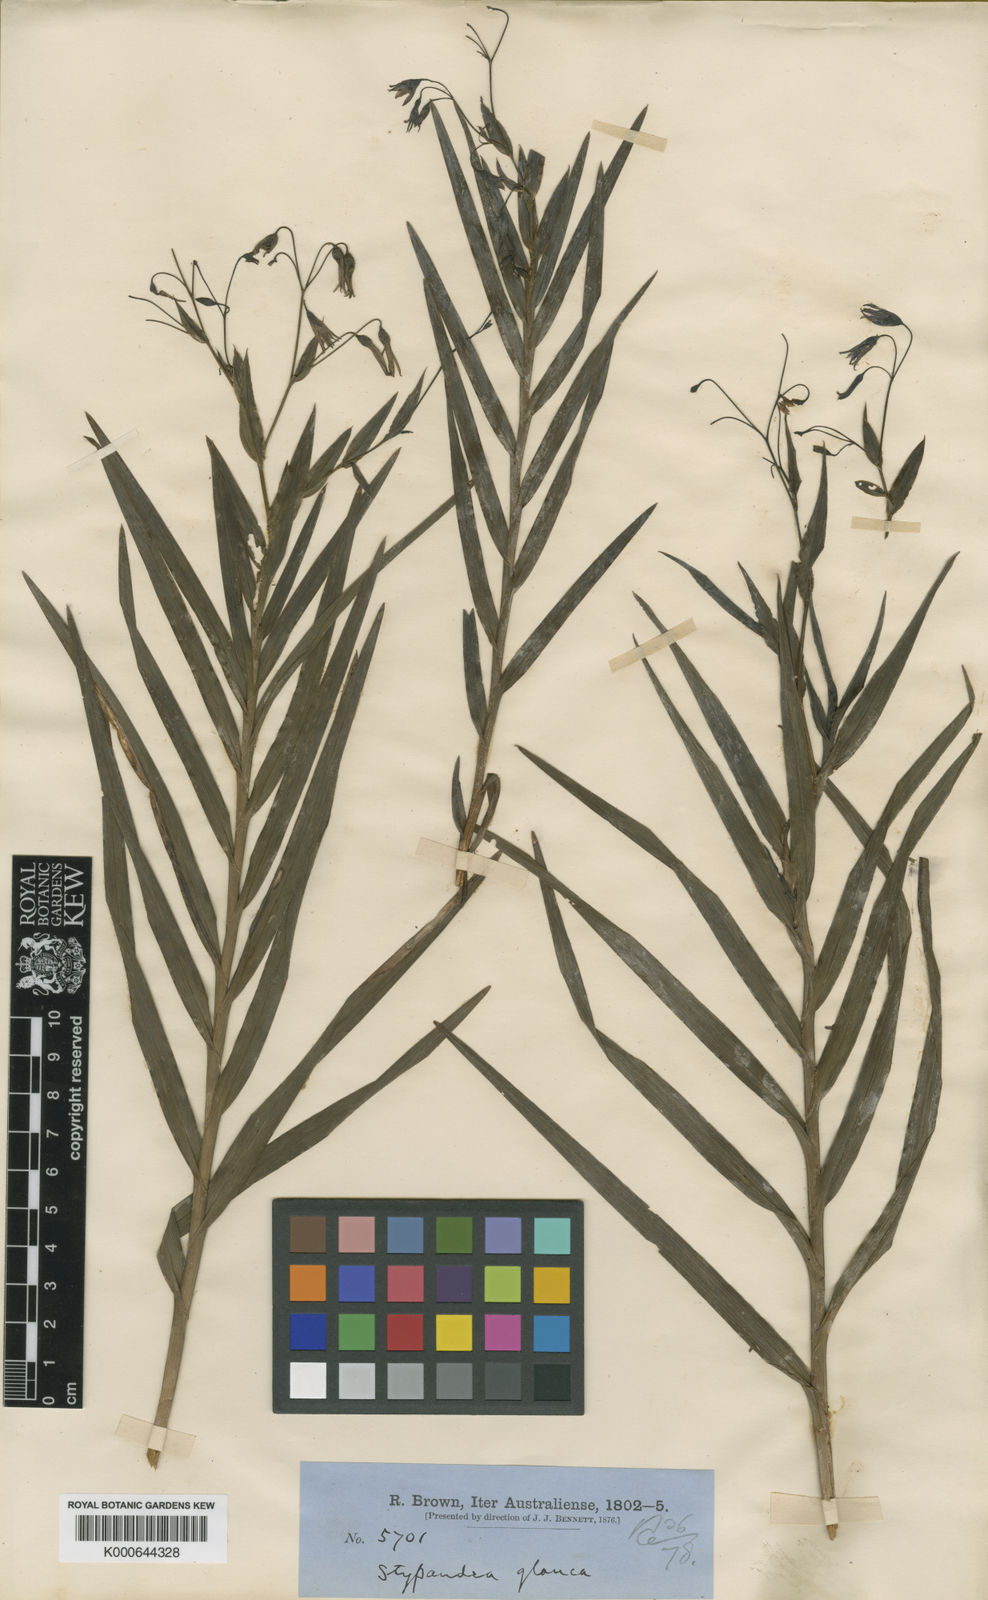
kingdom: Plantae
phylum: Tracheophyta
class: Liliopsida
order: Asparagales
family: Asphodelaceae
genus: Stypandra
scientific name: Stypandra glauca
